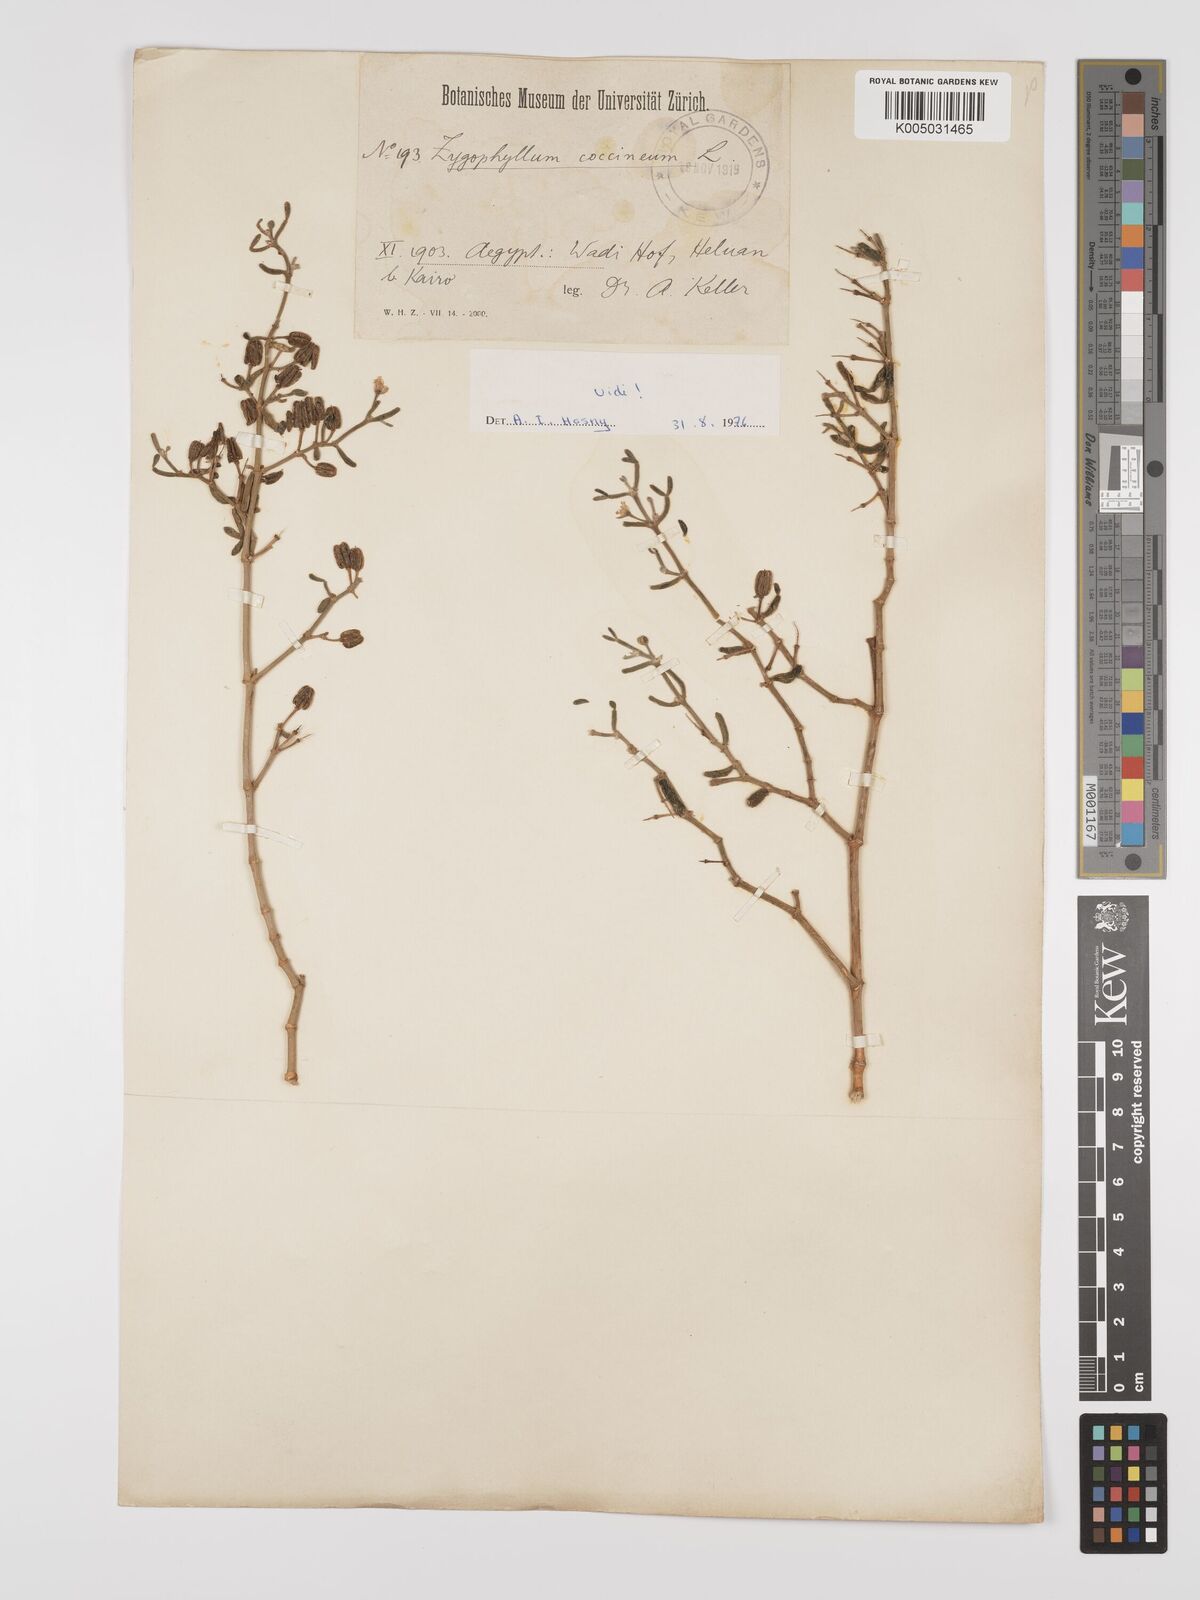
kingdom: Plantae
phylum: Tracheophyta
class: Magnoliopsida
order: Zygophyllales
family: Zygophyllaceae
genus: Tetraena
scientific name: Tetraena coccinea
